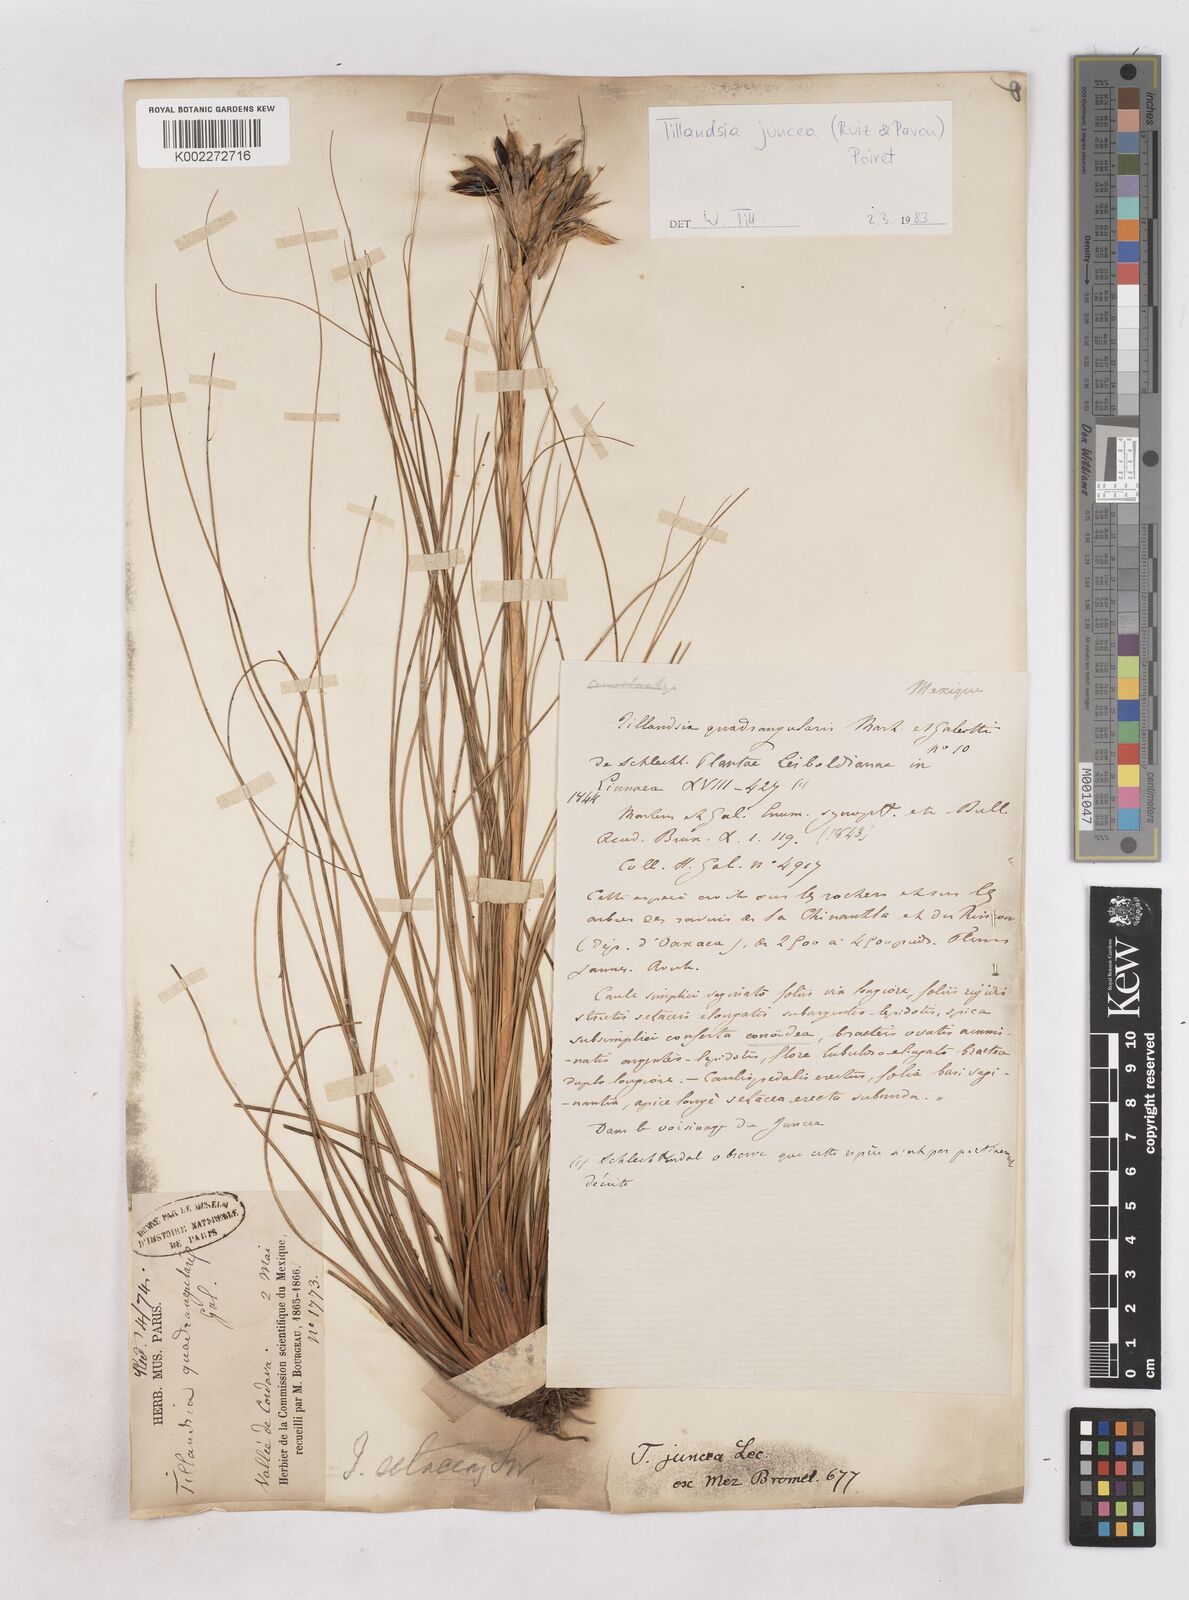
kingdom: Plantae
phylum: Tracheophyta
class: Liliopsida
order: Poales
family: Bromeliaceae
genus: Tillandsia
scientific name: Tillandsia juncea
